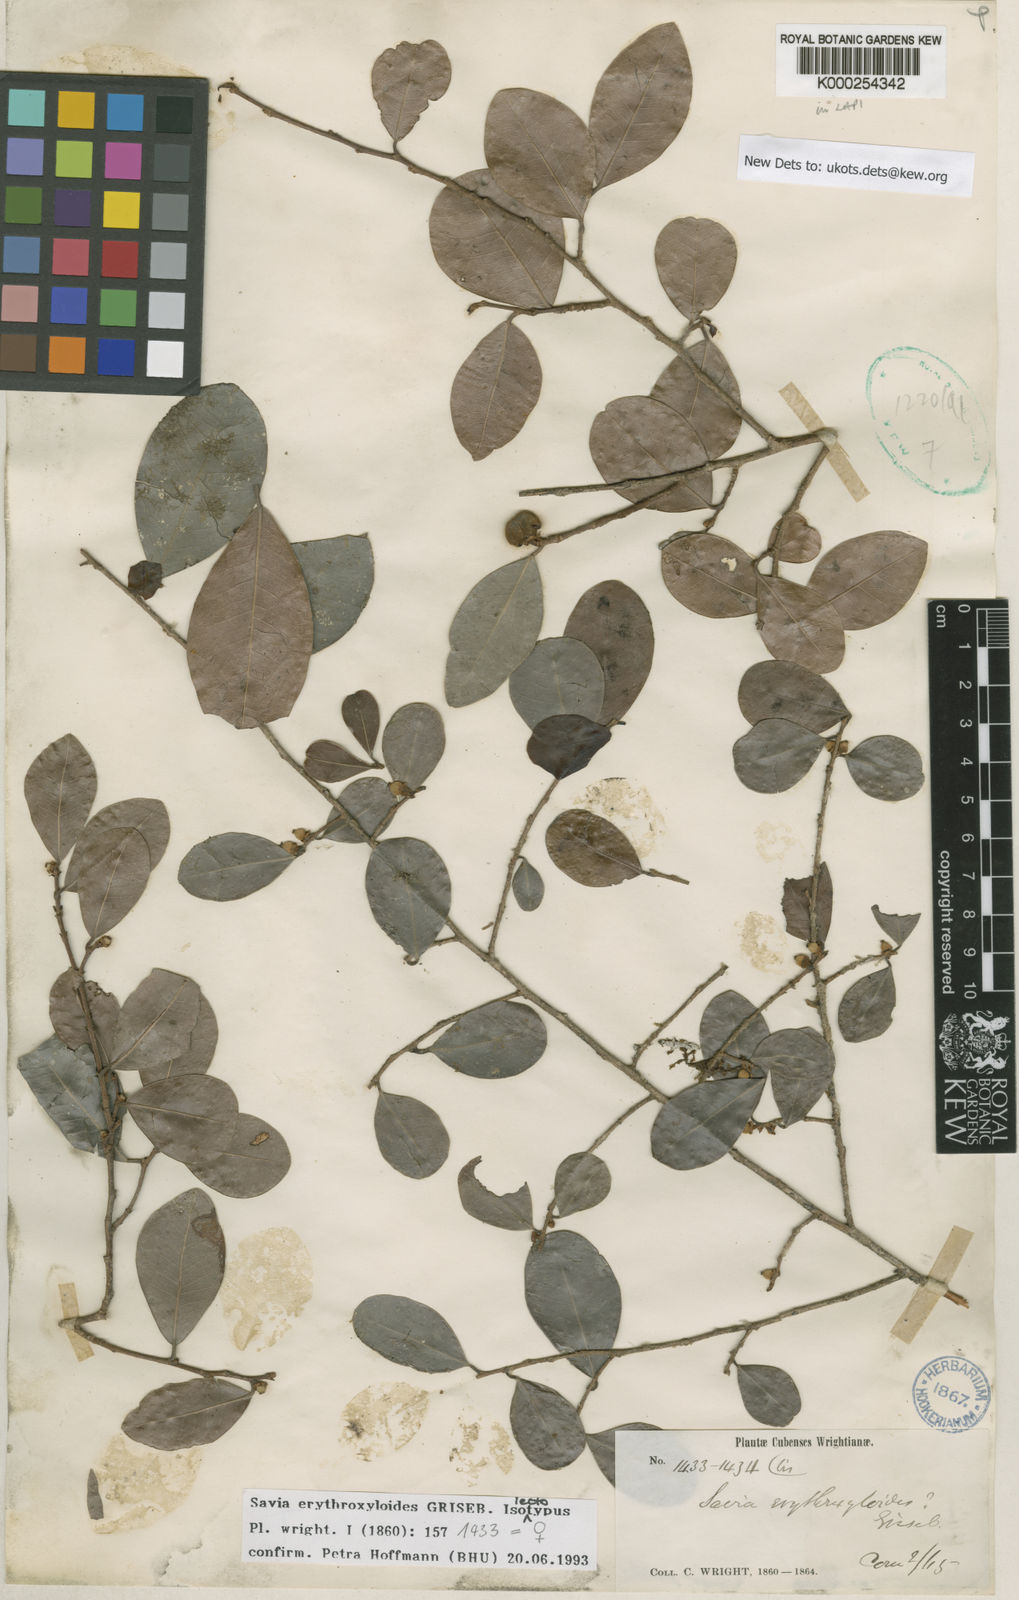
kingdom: Plantae
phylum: Tracheophyta
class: Magnoliopsida
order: Malpighiales
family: Phyllanthaceae
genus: Heterosavia
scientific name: Heterosavia erythroxyloides
